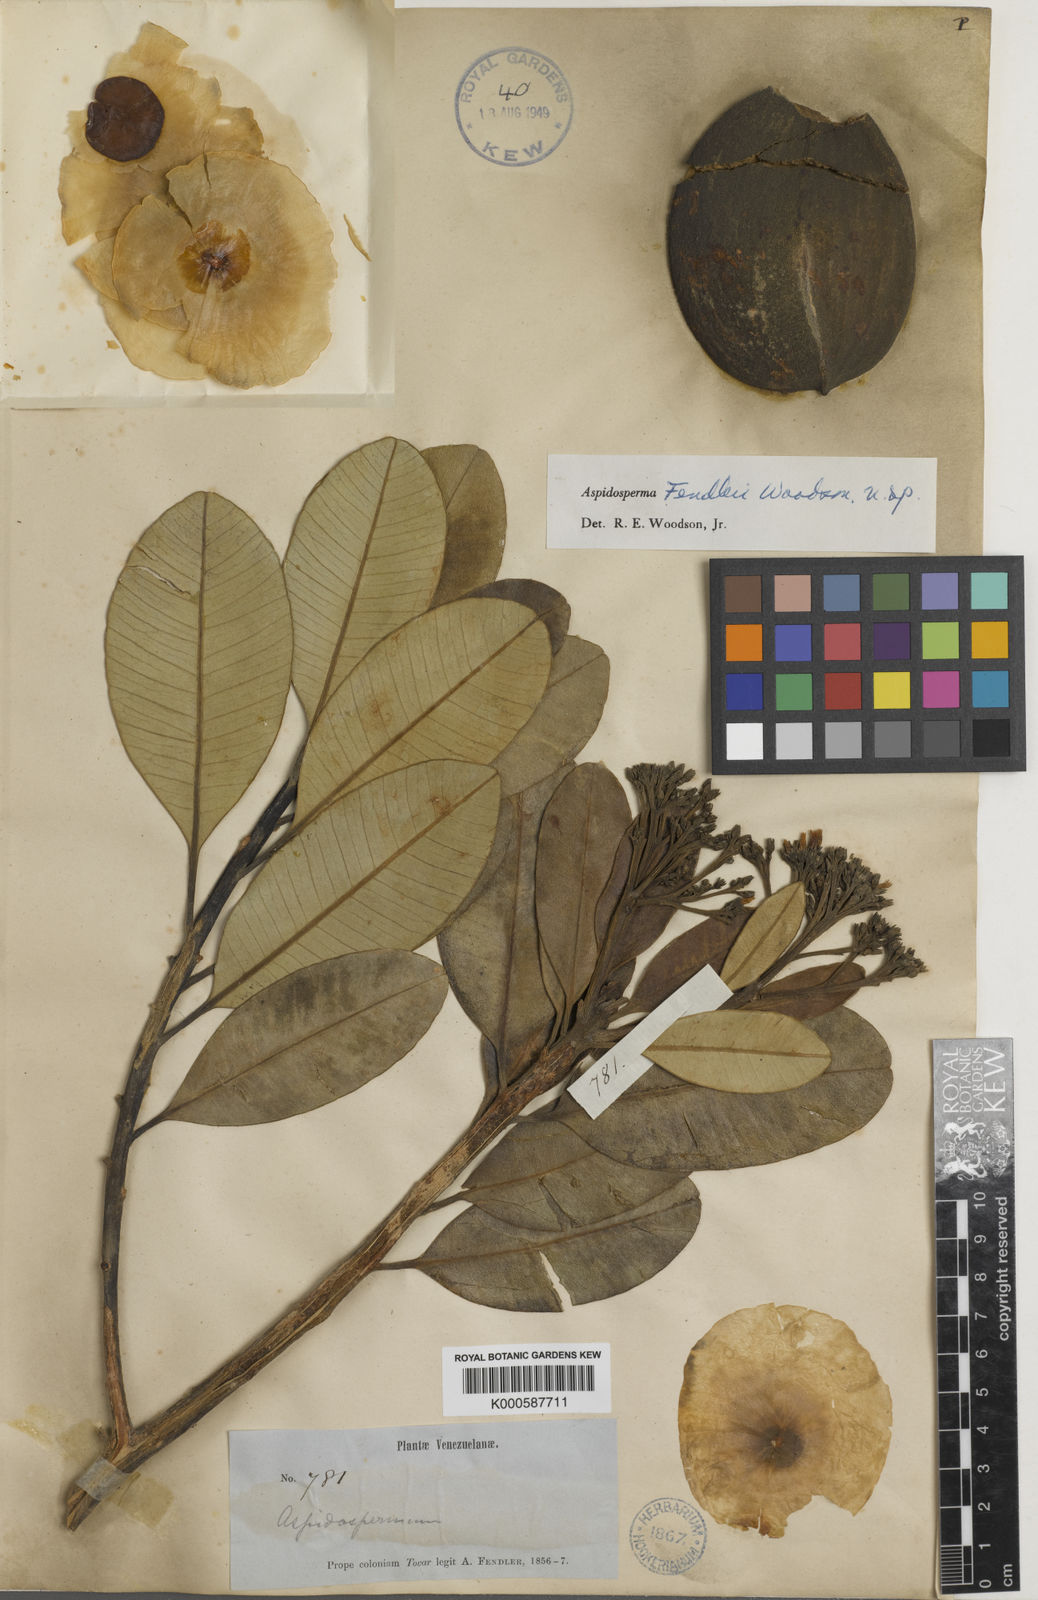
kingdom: Plantae
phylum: Tracheophyta
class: Magnoliopsida
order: Gentianales
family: Apocynaceae
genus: Aspidosperma
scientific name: Aspidosperma fendleri
